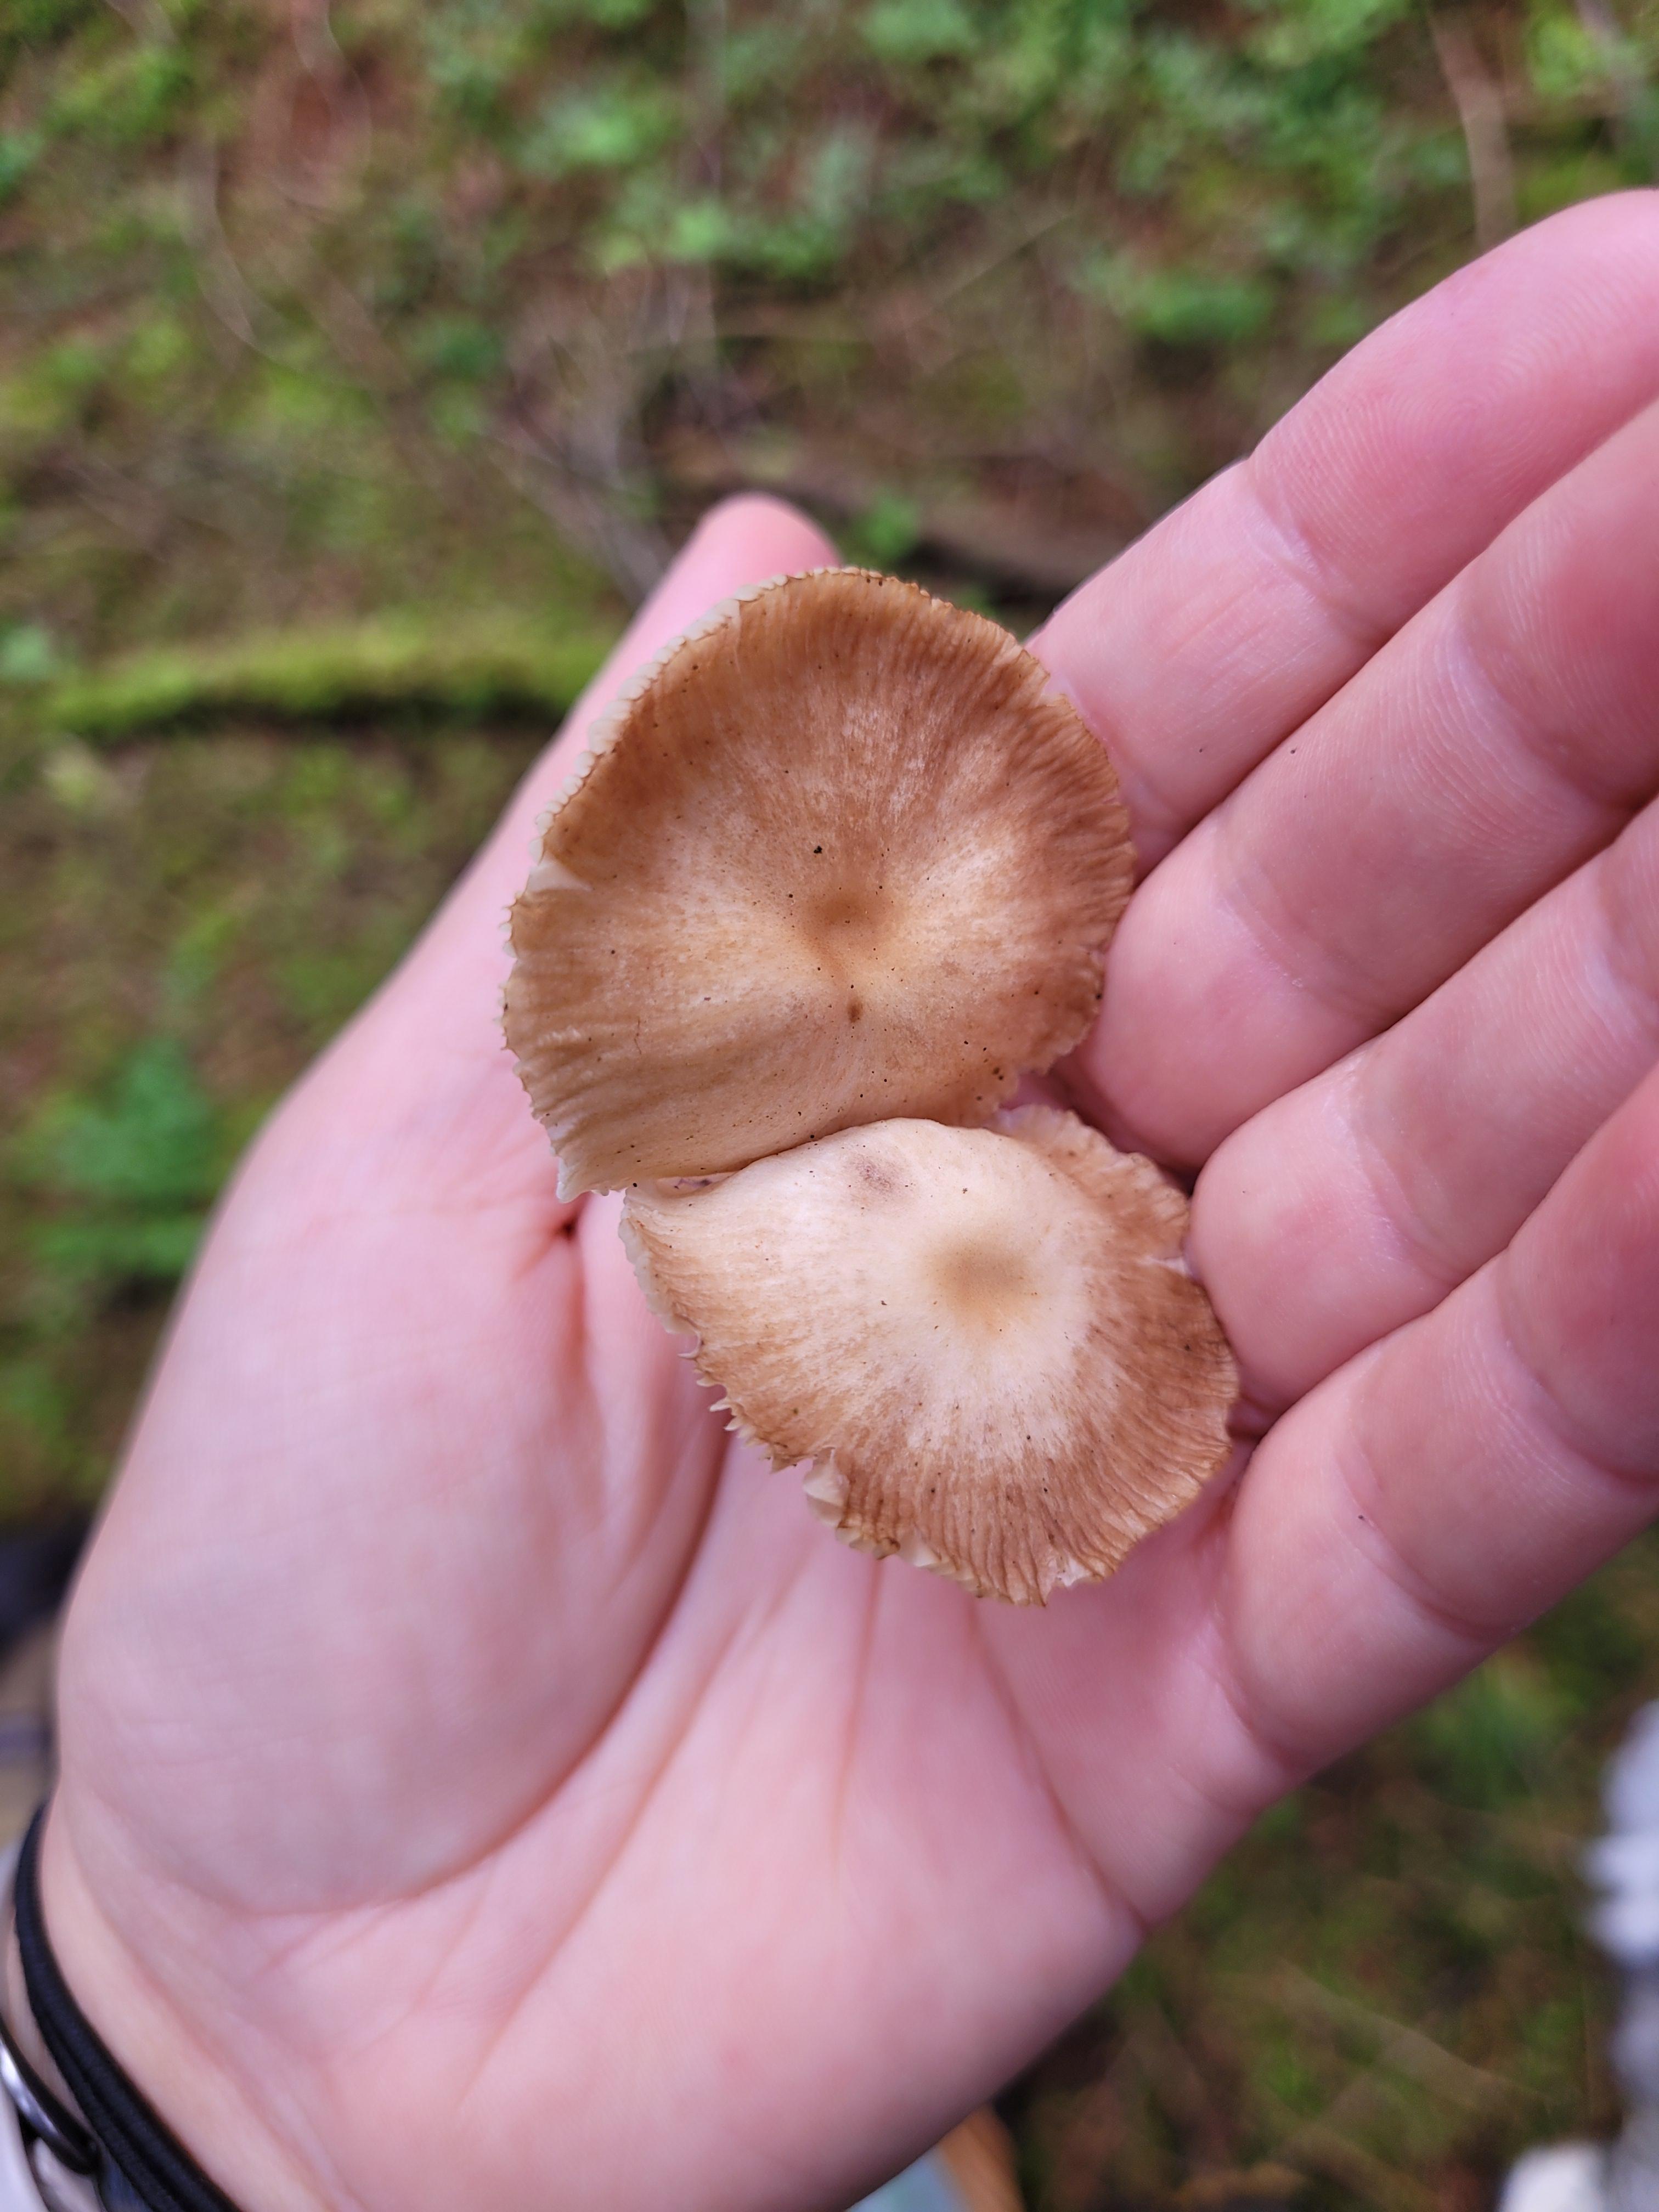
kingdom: Fungi
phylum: Basidiomycota
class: Agaricomycetes
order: Agaricales
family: Omphalotaceae
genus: Gymnopus
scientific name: Gymnopus inodorus
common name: lugtløs fladhat
